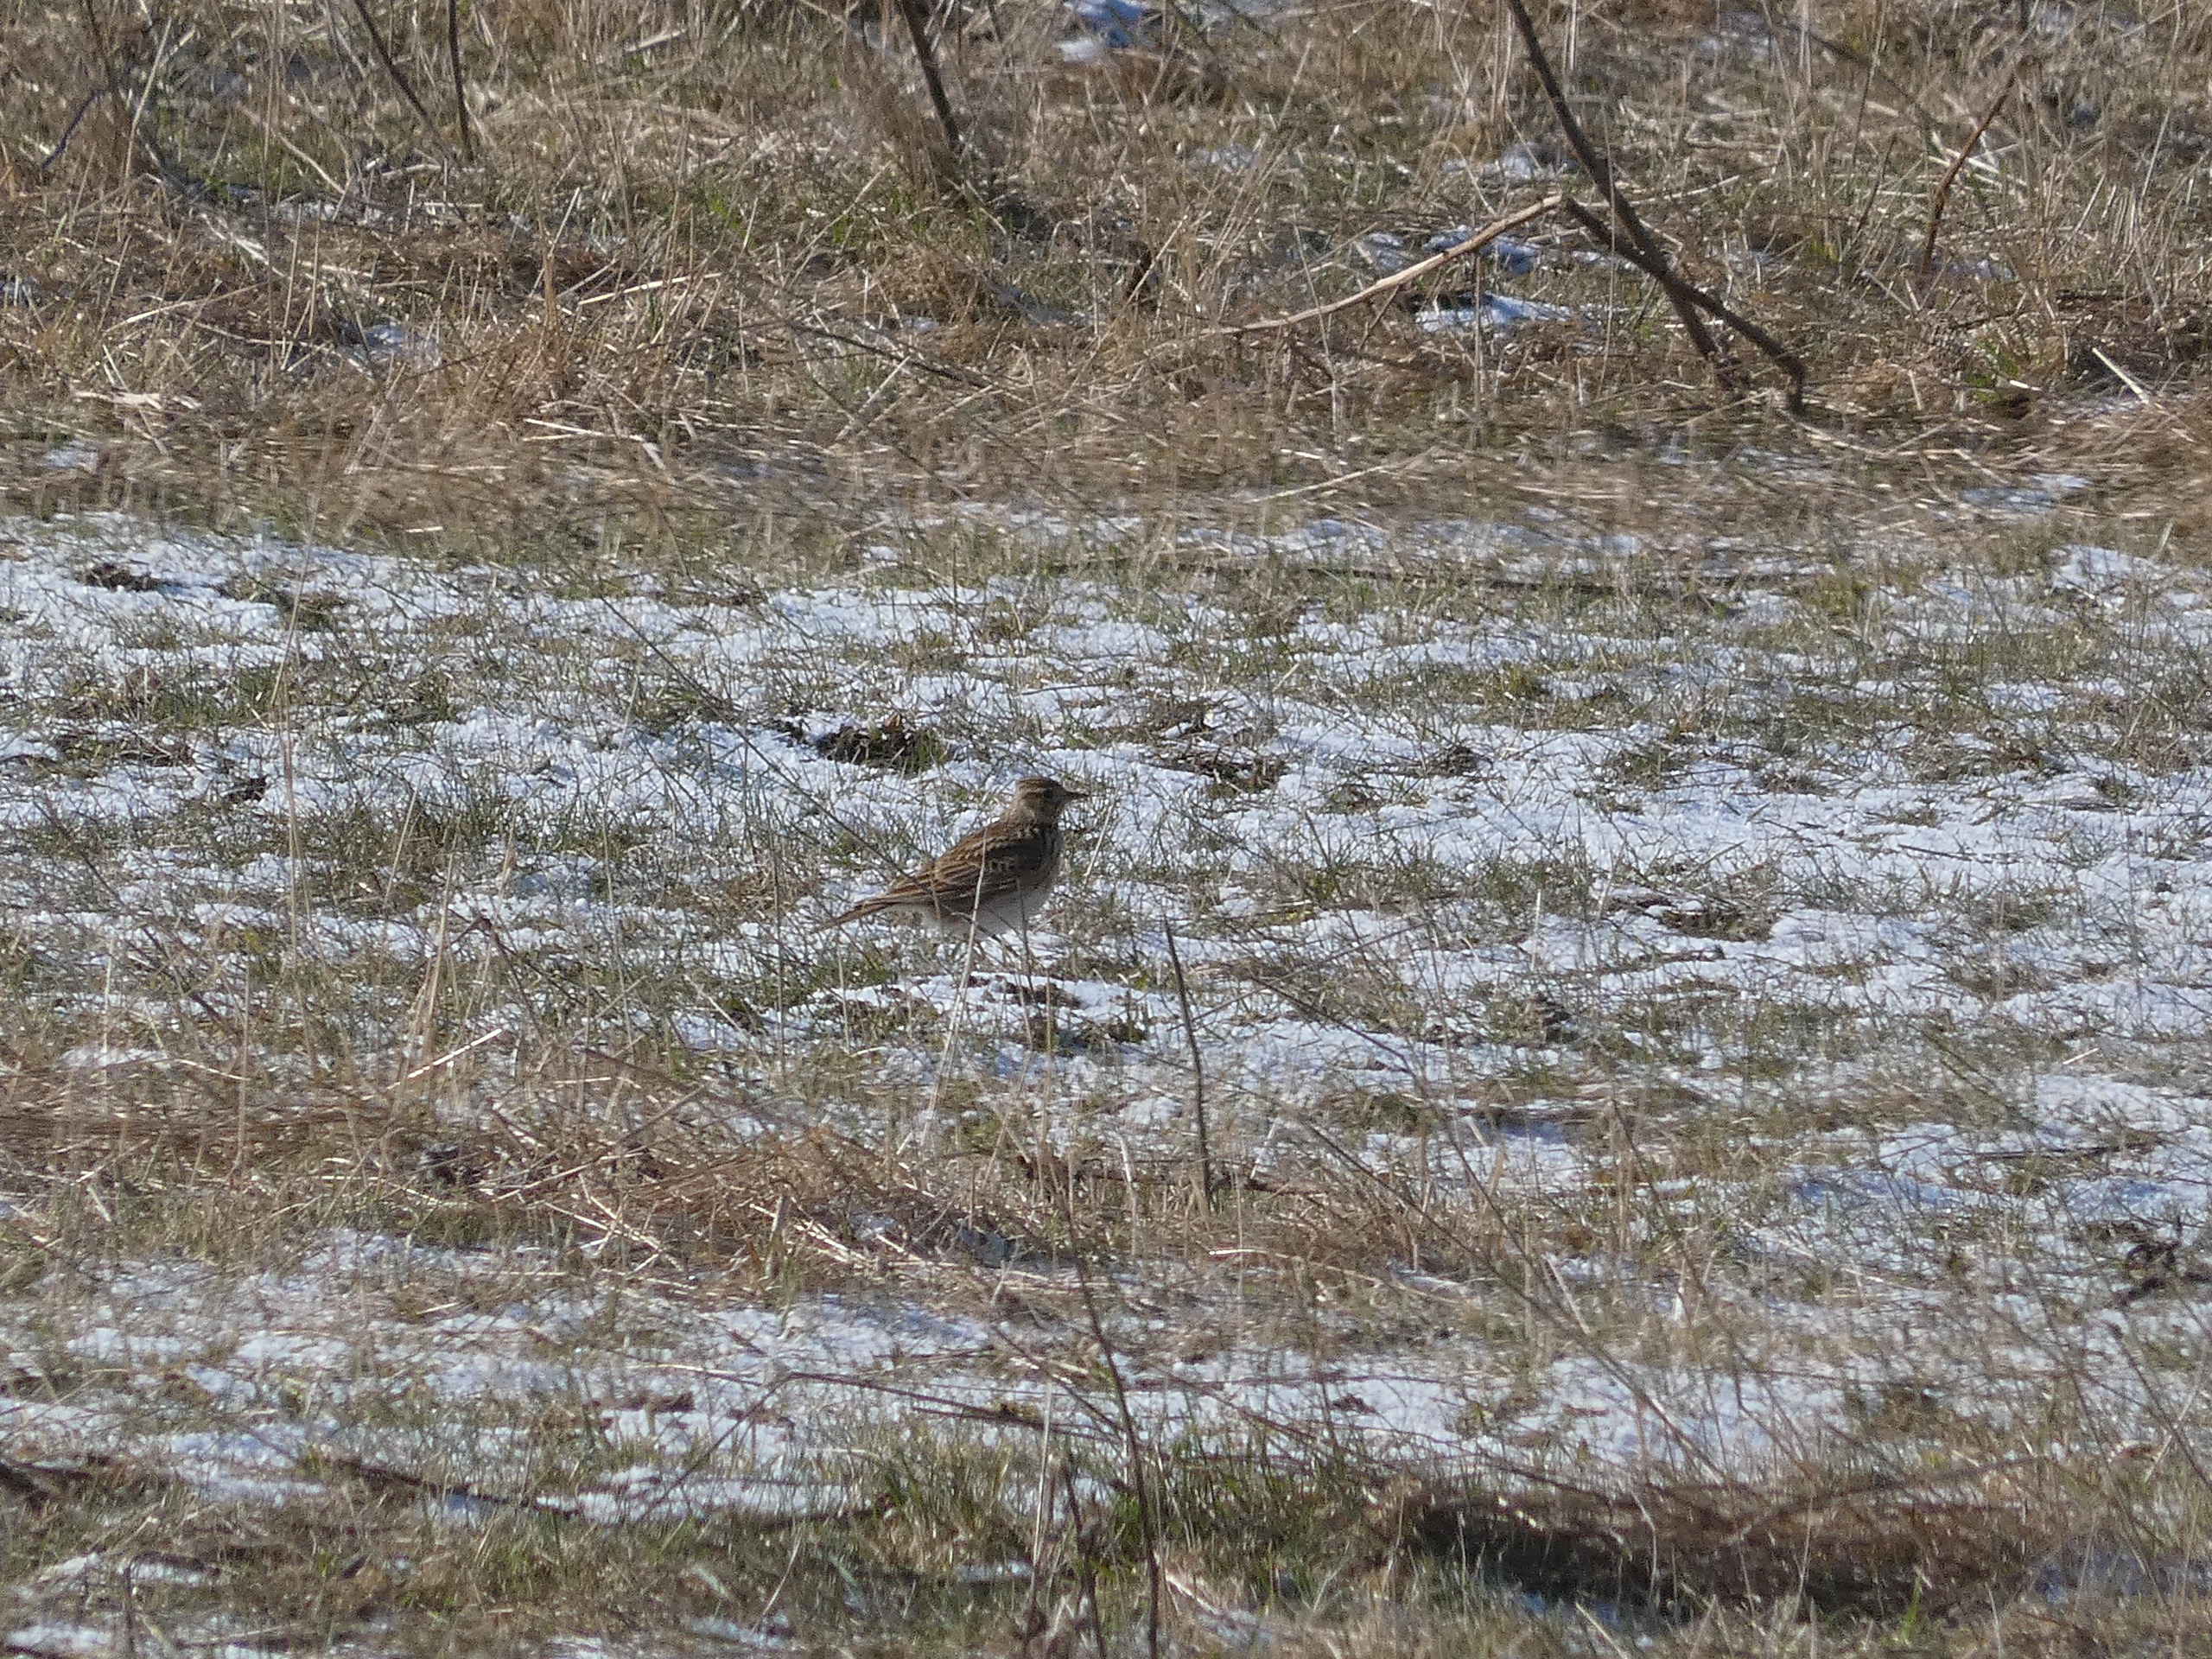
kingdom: Animalia
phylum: Chordata
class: Aves
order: Passeriformes
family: Alaudidae
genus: Alauda
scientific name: Alauda arvensis
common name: Sanglærke
